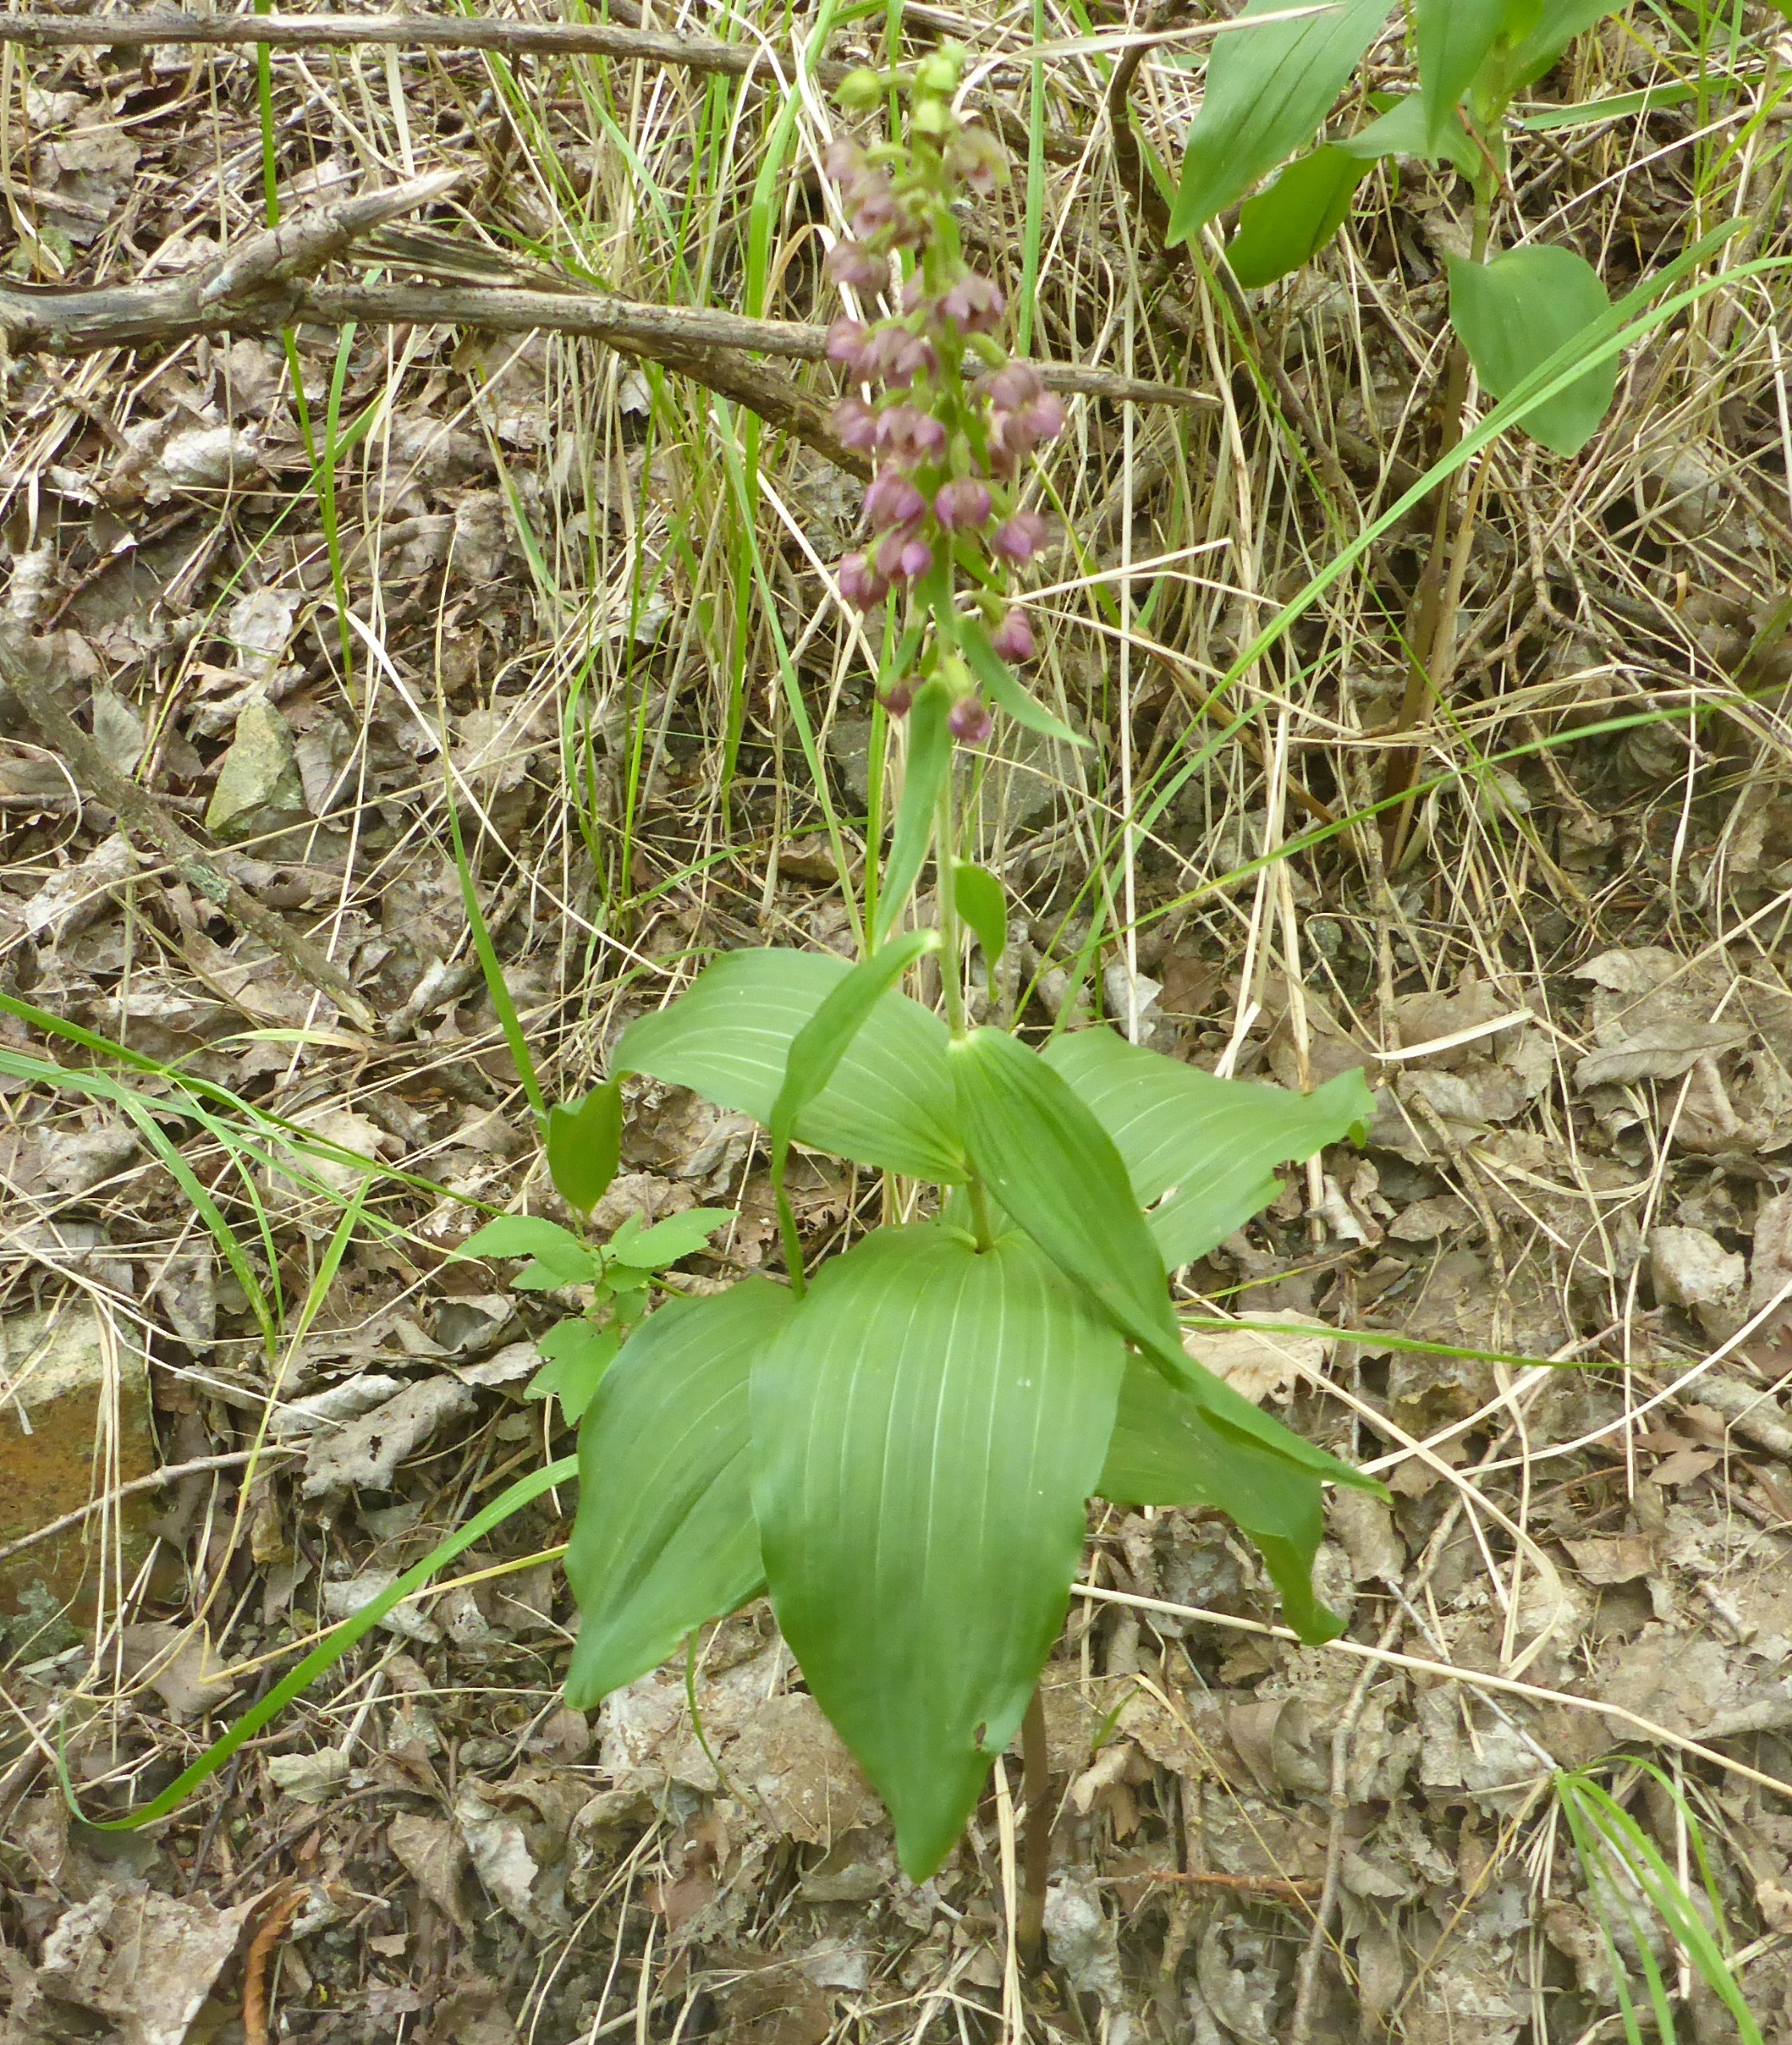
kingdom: Plantae
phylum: Tracheophyta
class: Liliopsida
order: Asparagales
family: Orchidaceae
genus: Epipactis
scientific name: Epipactis helleborine
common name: Skov-hullæbe
